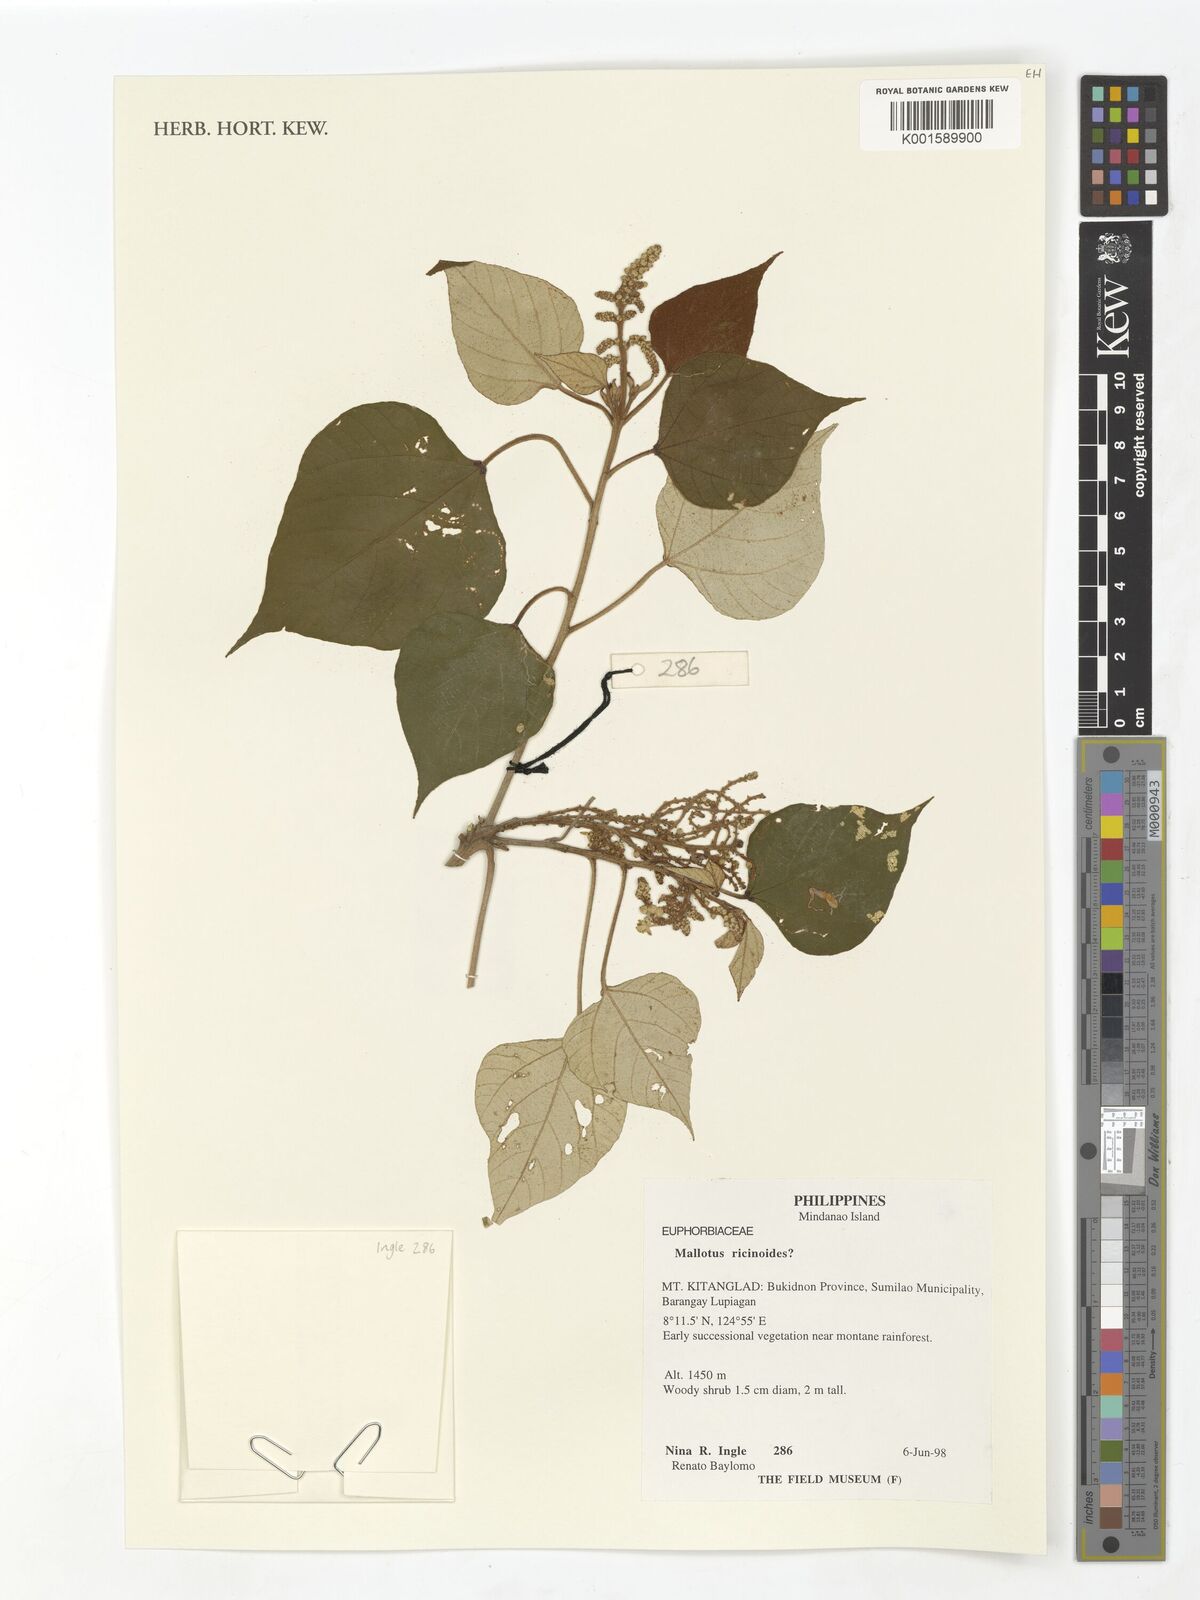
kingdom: Plantae
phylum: Tracheophyta
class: Magnoliopsida
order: Malpighiales
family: Euphorbiaceae
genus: Mallotus
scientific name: Mallotus mollissimus
